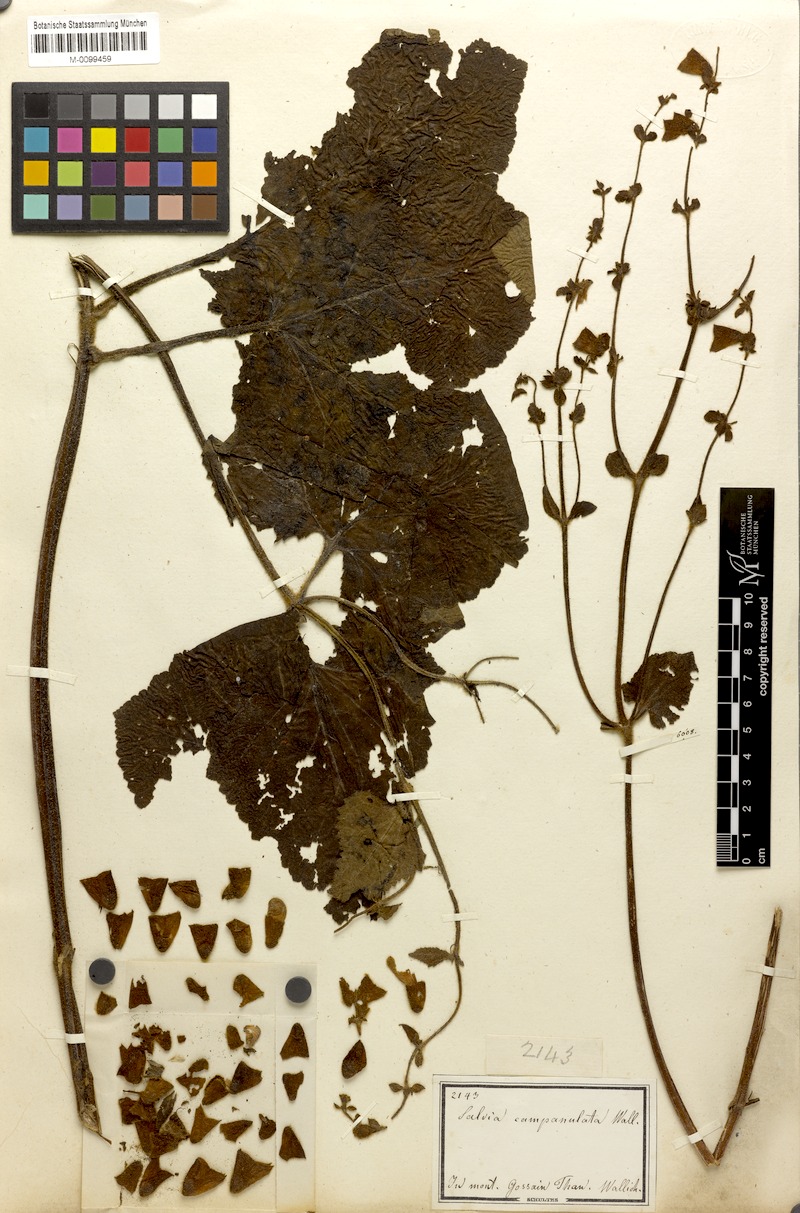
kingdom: Plantae
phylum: Tracheophyta
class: Magnoliopsida
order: Lamiales
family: Lamiaceae
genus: Salvia
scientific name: Salvia campanulata
